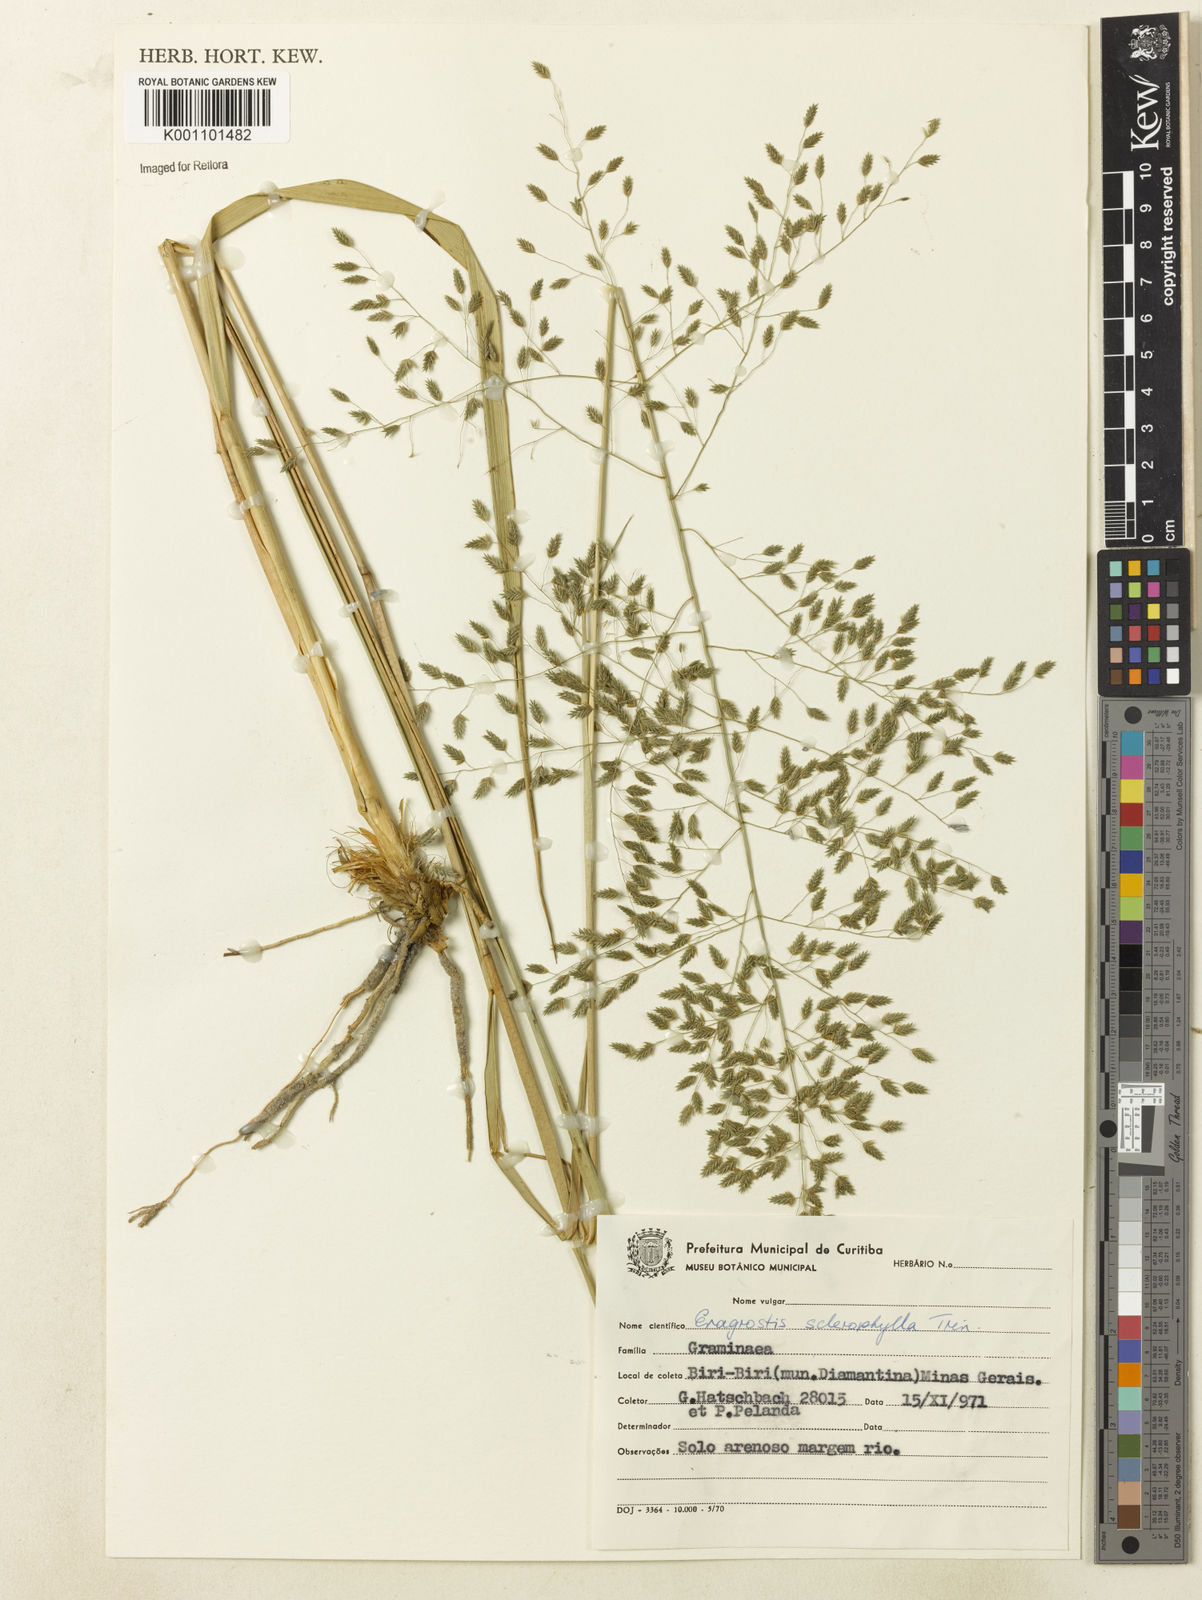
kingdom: Plantae
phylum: Tracheophyta
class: Liliopsida
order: Poales
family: Poaceae
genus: Eragrostis
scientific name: Eragrostis sclerophylla
